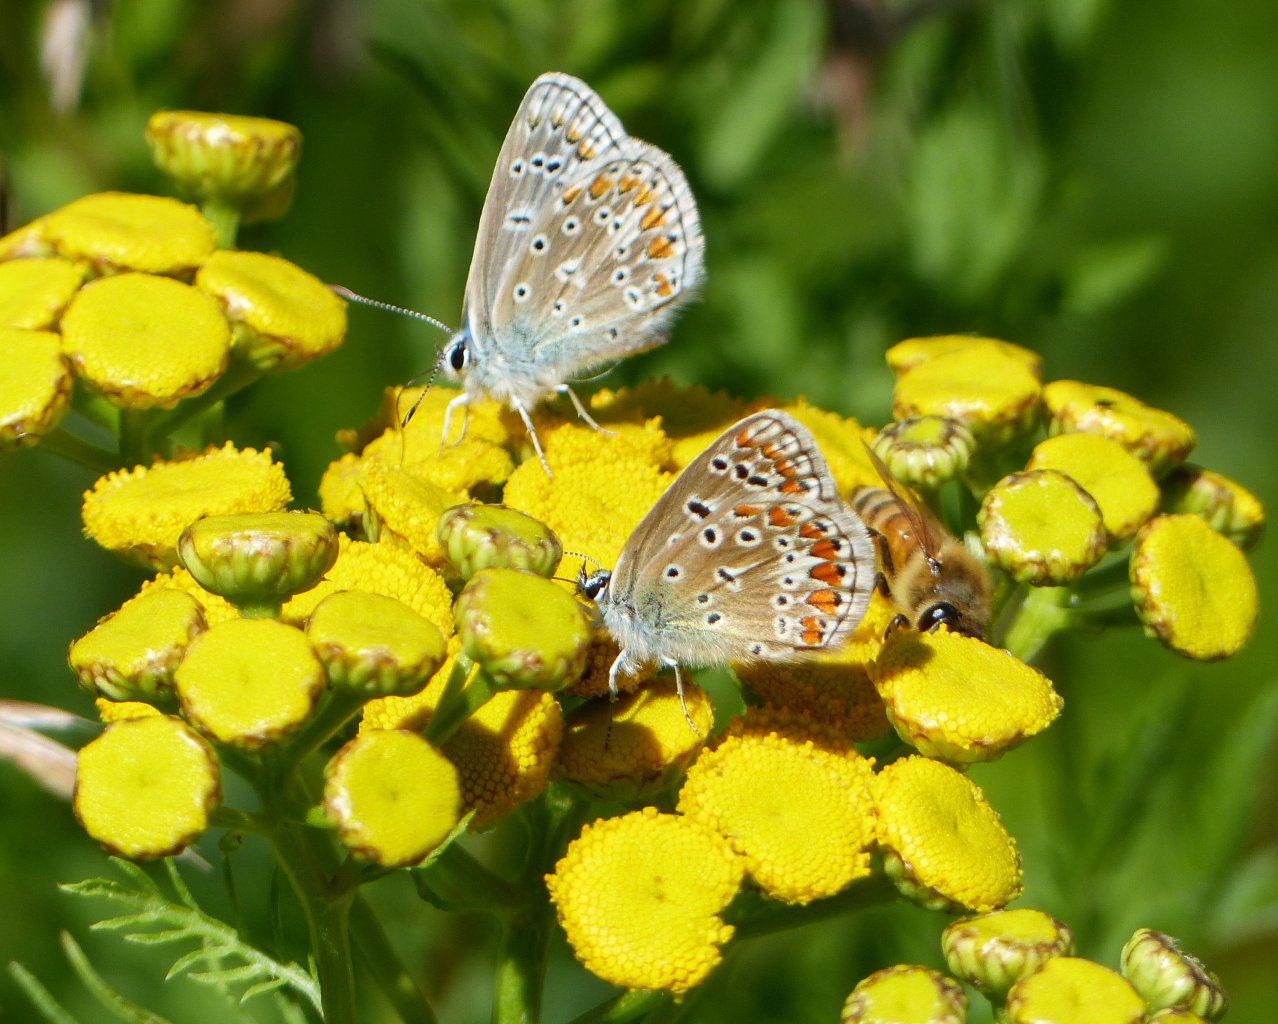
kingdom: Animalia
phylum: Arthropoda
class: Insecta
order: Lepidoptera
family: Lycaenidae
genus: Polyommatus
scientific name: Polyommatus icarus
